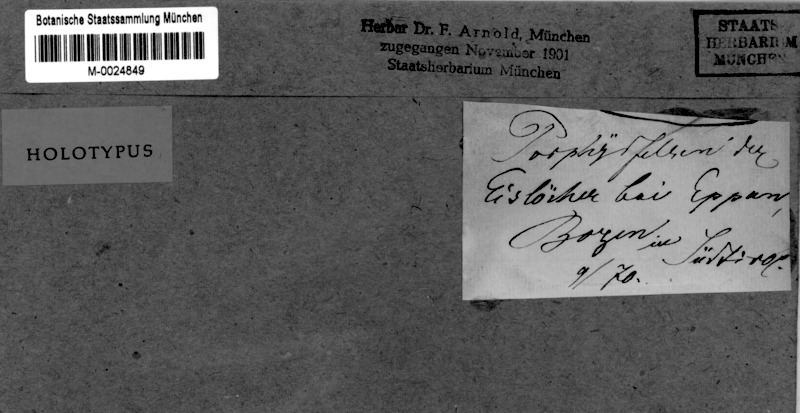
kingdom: Fungi
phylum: Ascomycota
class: Lecanoromycetes
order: Caliciales
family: Caliciaceae
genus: Diplotomma
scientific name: Diplotomma chlorophaeum
